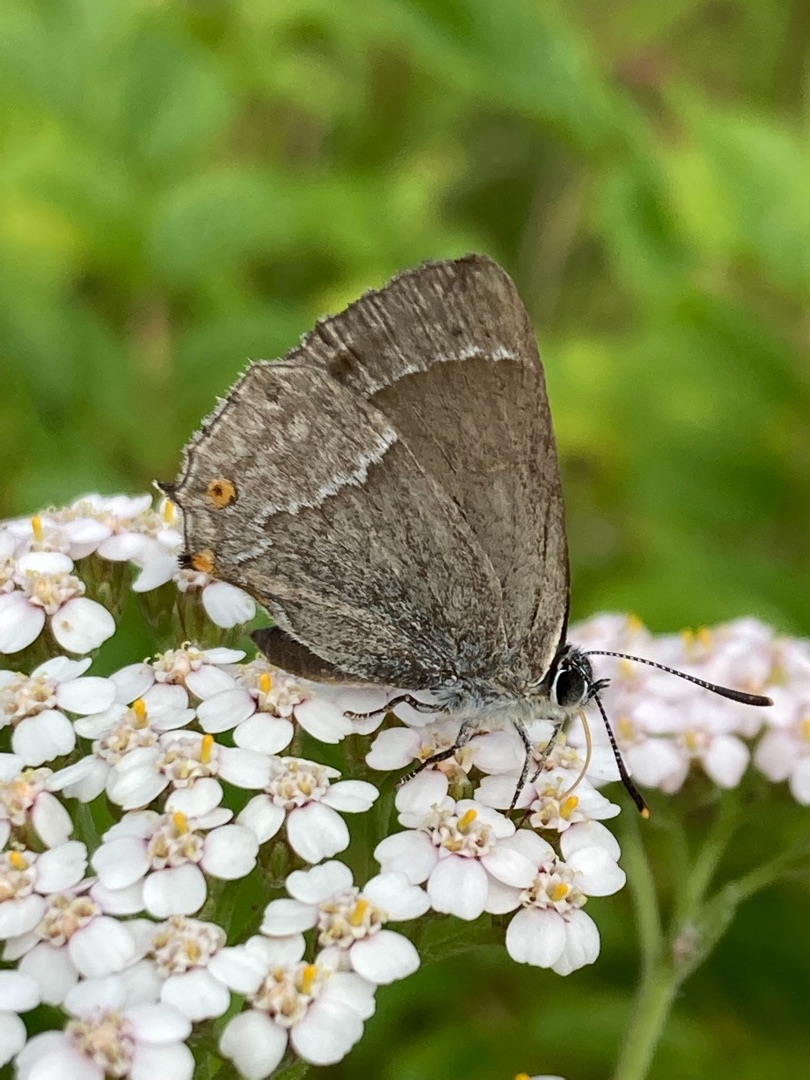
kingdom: Animalia
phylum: Arthropoda
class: Insecta
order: Lepidoptera
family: Lycaenidae
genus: Quercusia
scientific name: Quercusia quercus
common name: Blåhale
